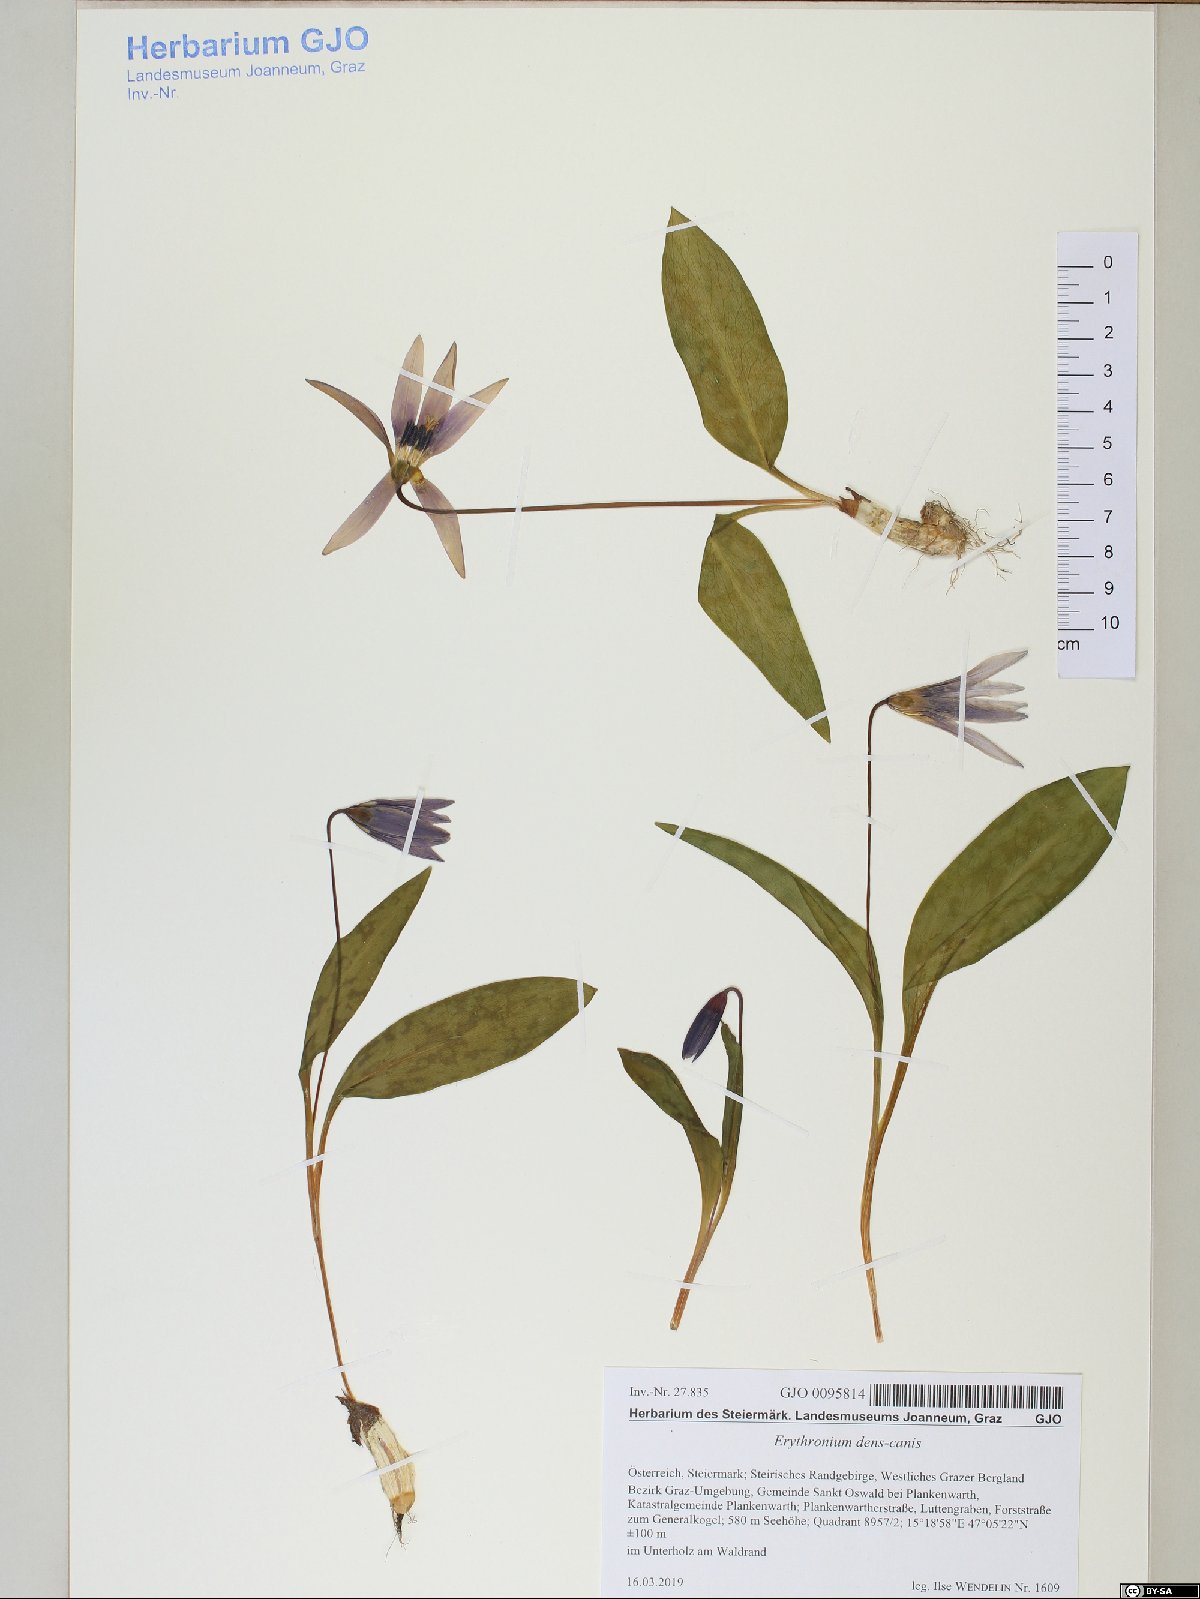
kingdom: Plantae
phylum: Tracheophyta
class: Liliopsida
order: Liliales
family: Liliaceae
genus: Erythronium
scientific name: Erythronium dens-canis
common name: Dog's-tooth-violet
